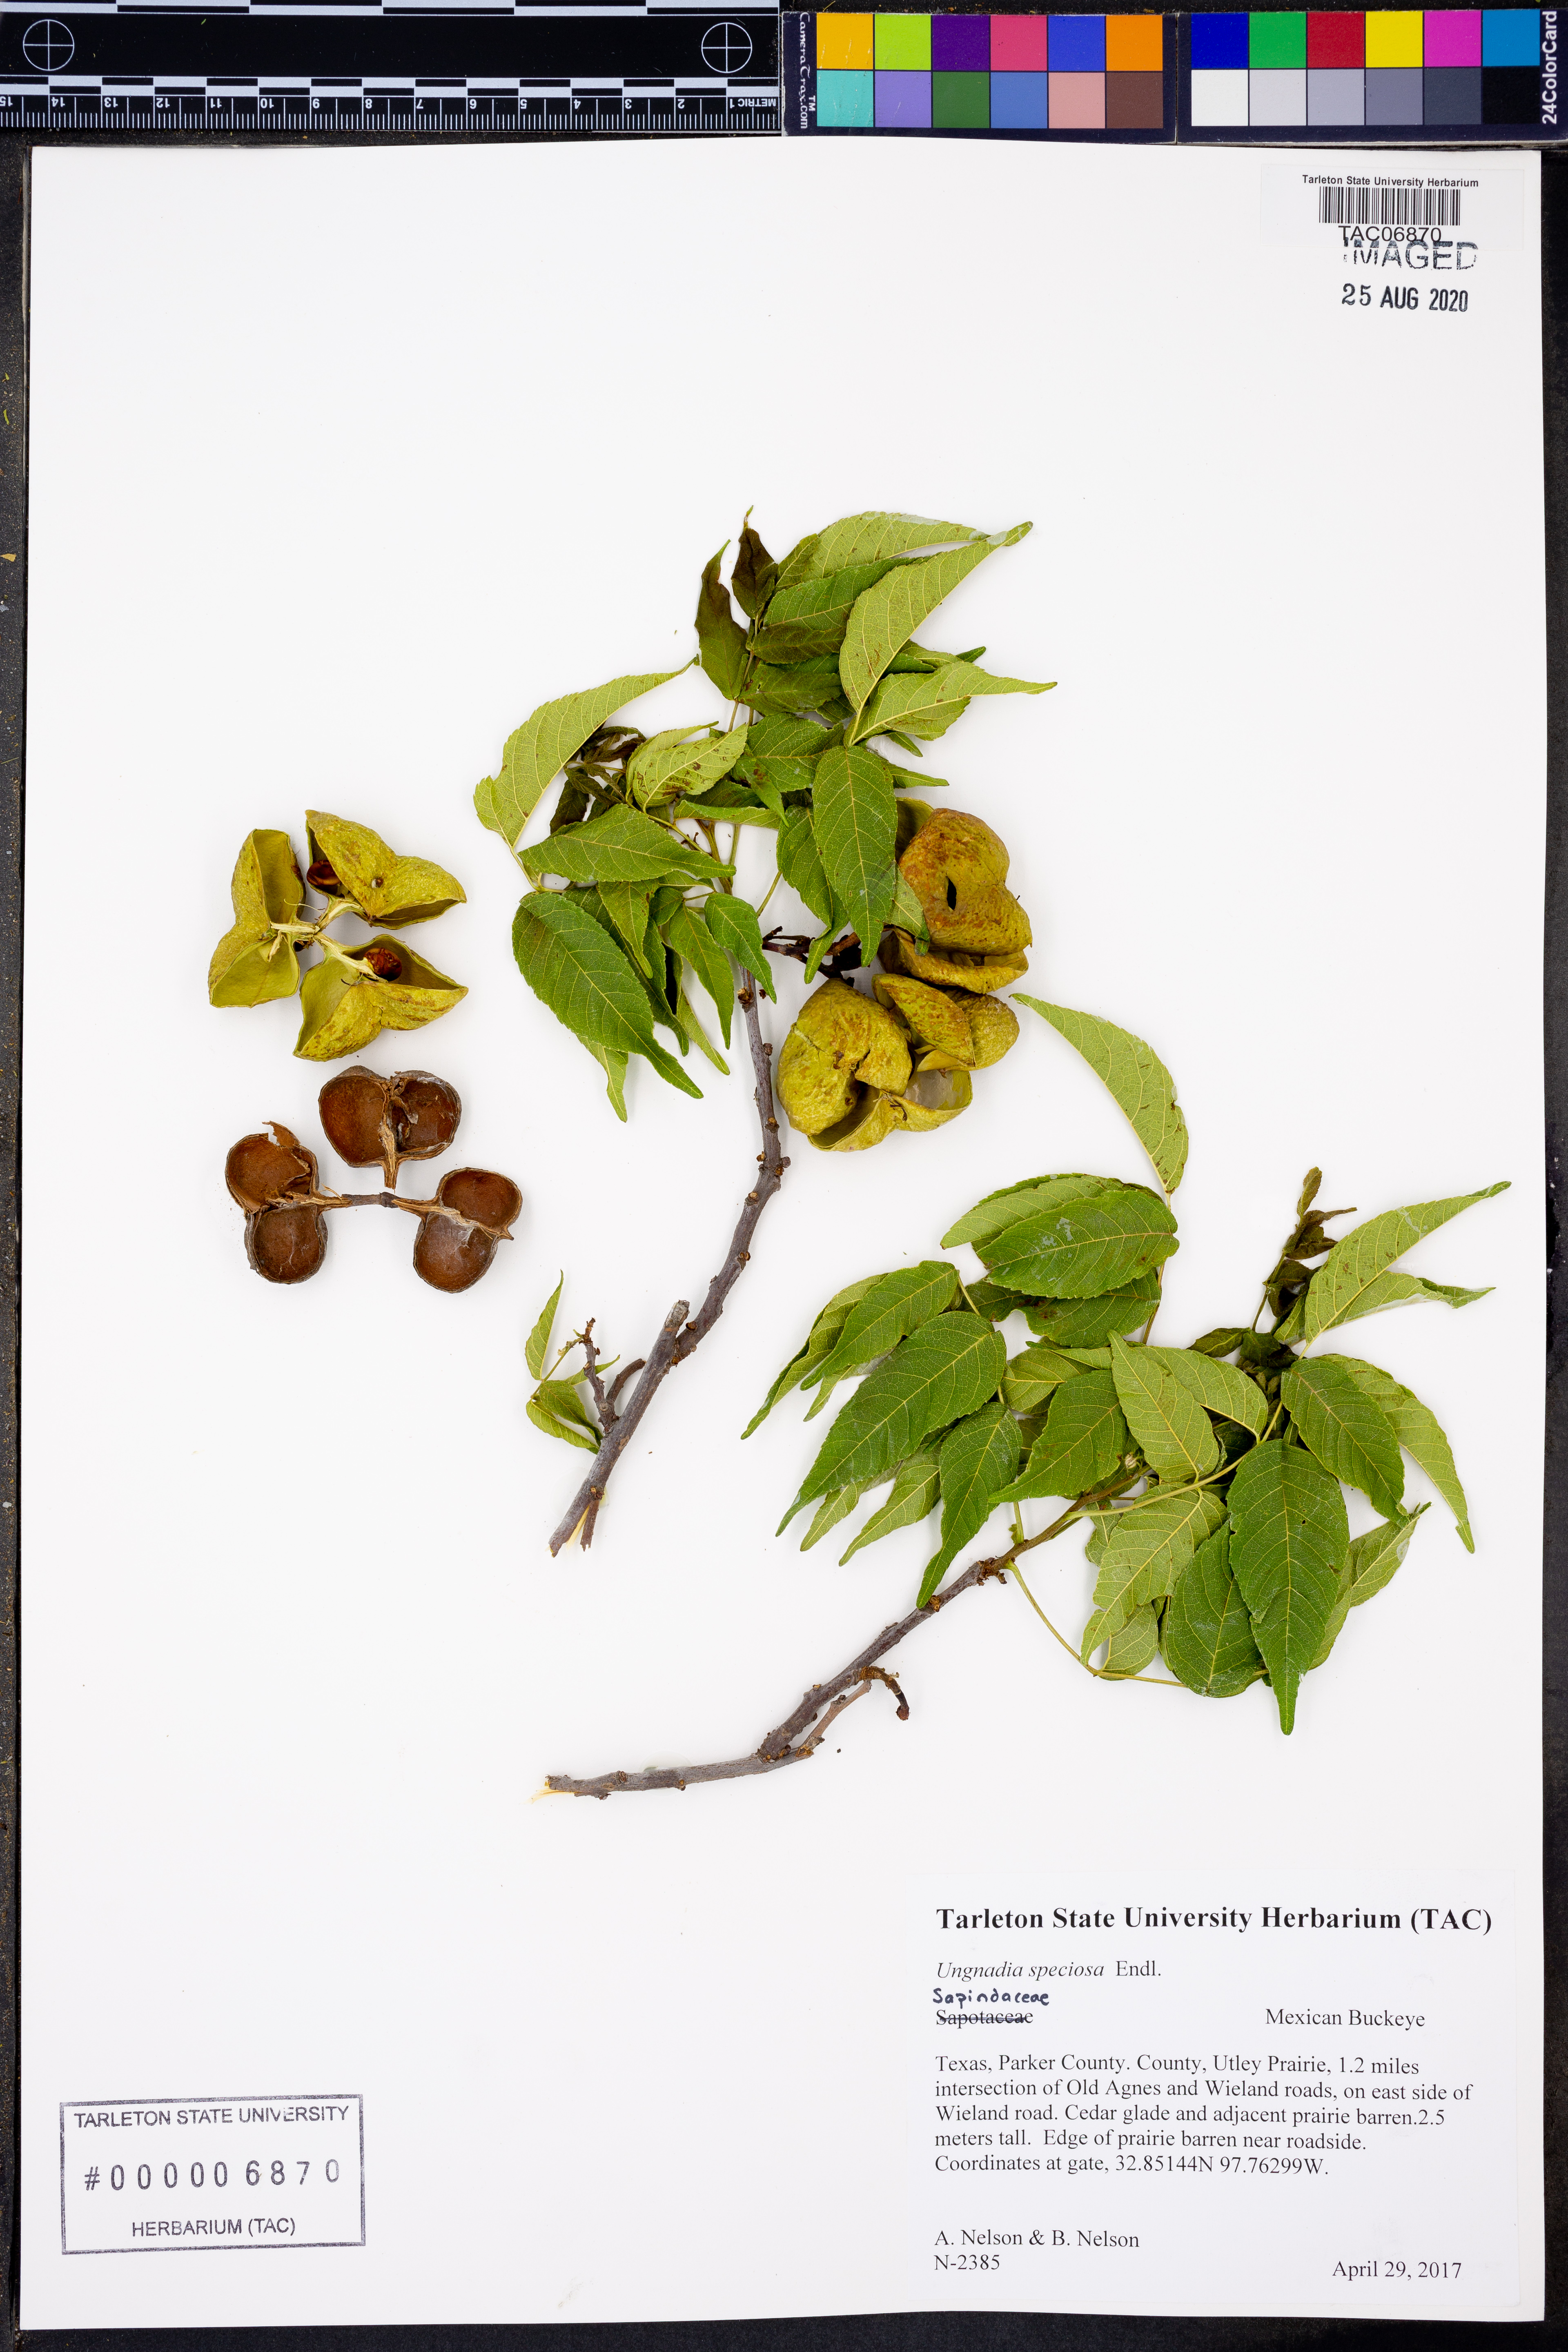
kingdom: Plantae
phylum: Tracheophyta
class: Magnoliopsida
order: Sapindales
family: Sapindaceae
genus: Ungnadia
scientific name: Ungnadia speciosa
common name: Texas-buckeye
